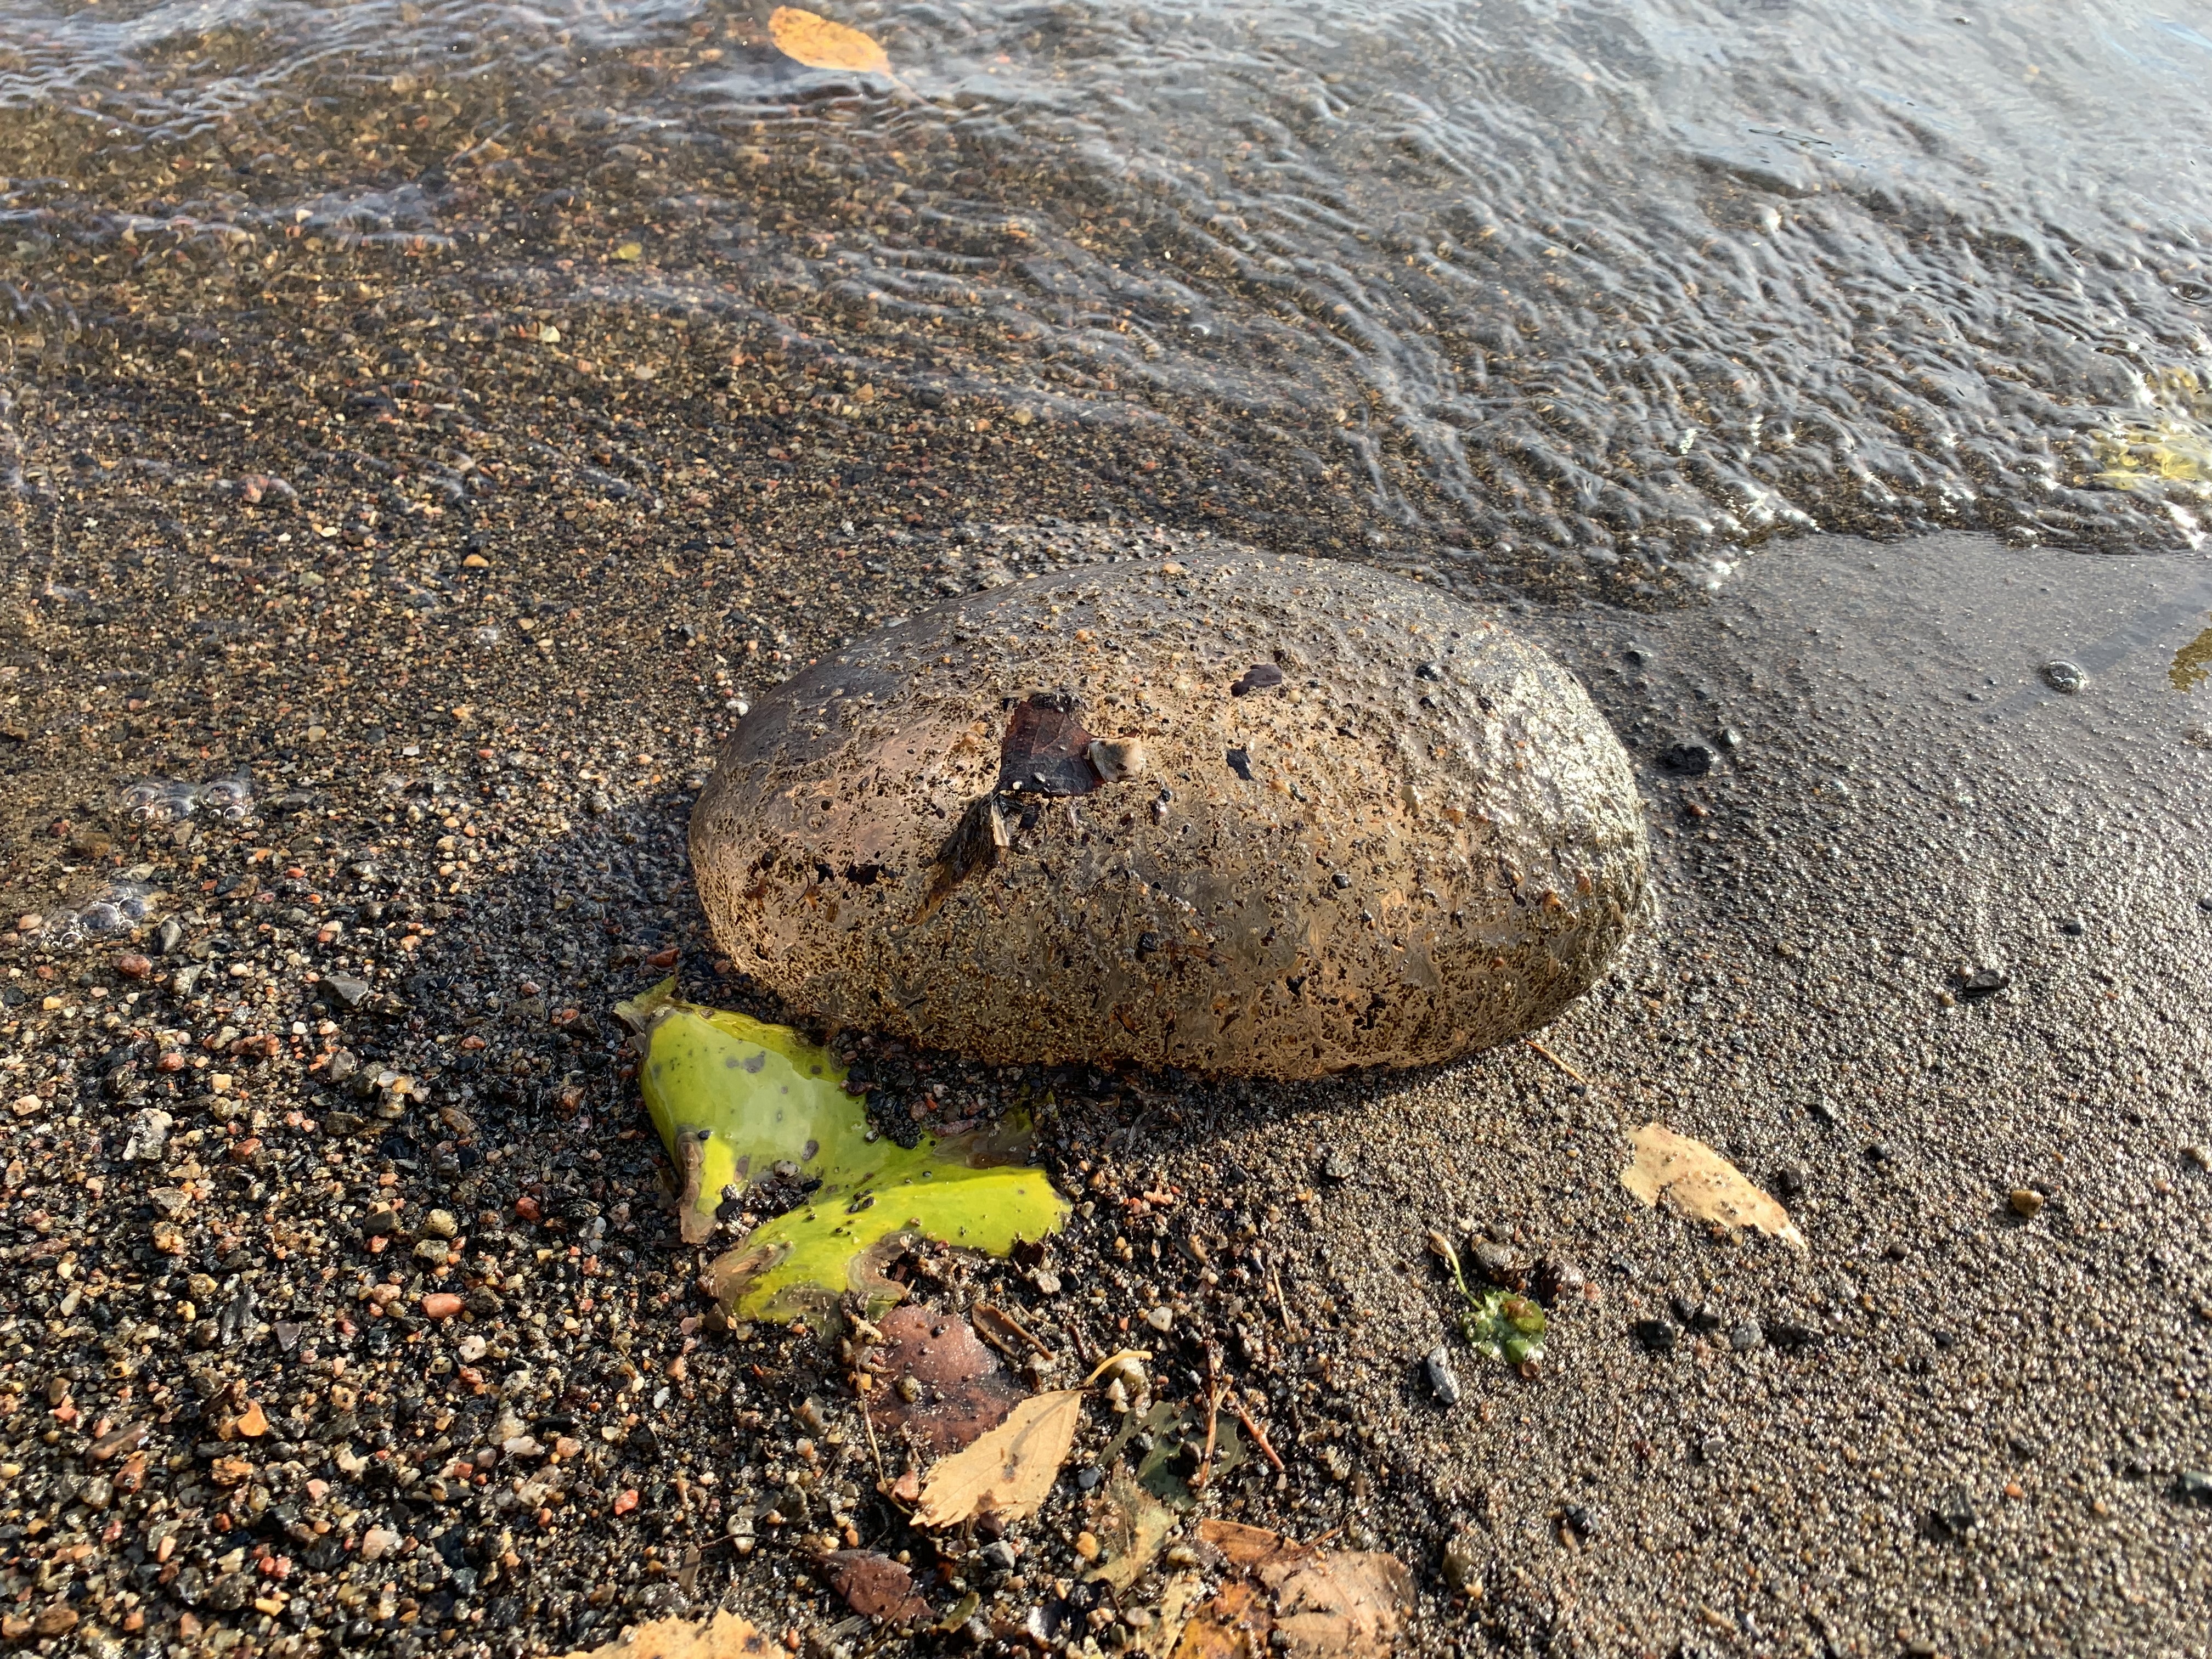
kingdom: Animalia
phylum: Bryozoa
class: Phylactolaemata
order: Plumatellida
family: Pectinatellidae
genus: Pectinatella
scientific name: Pectinatella magnifica
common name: Magnificent bryozoan
